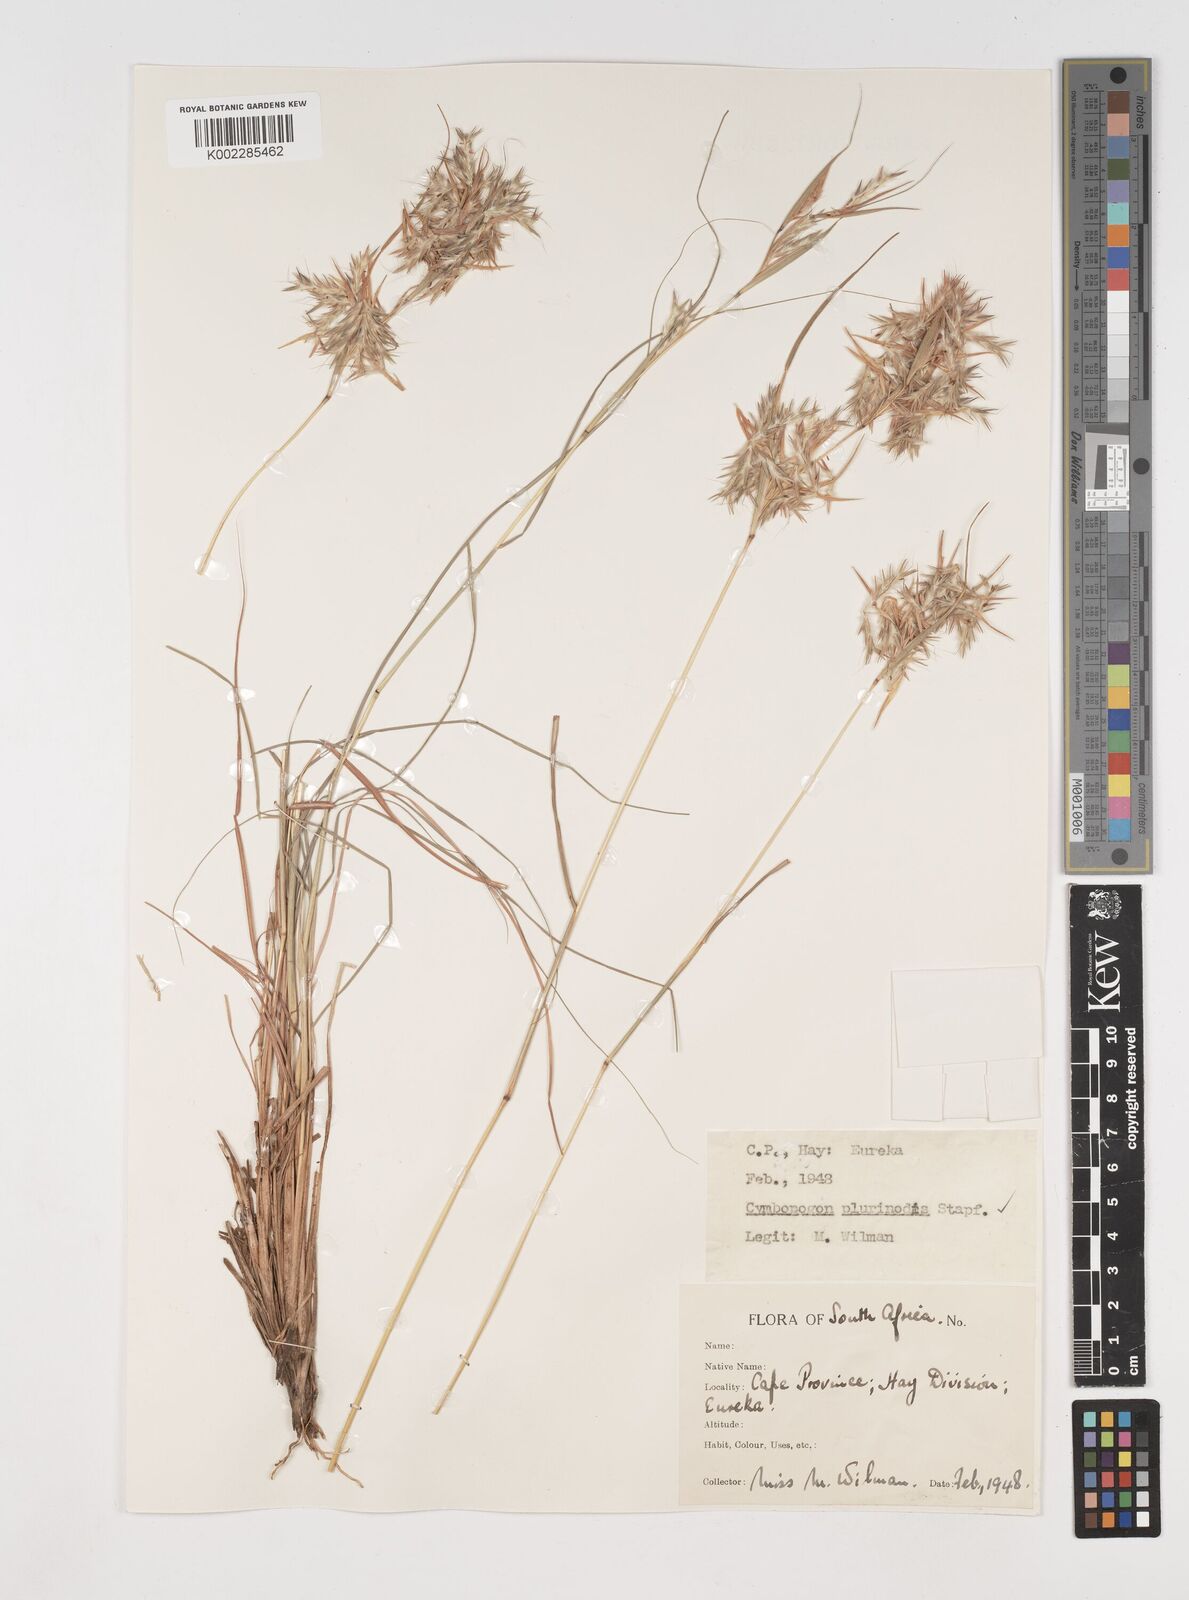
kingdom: Plantae
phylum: Tracheophyta
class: Liliopsida
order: Poales
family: Poaceae
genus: Cymbopogon
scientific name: Cymbopogon pospischilii
